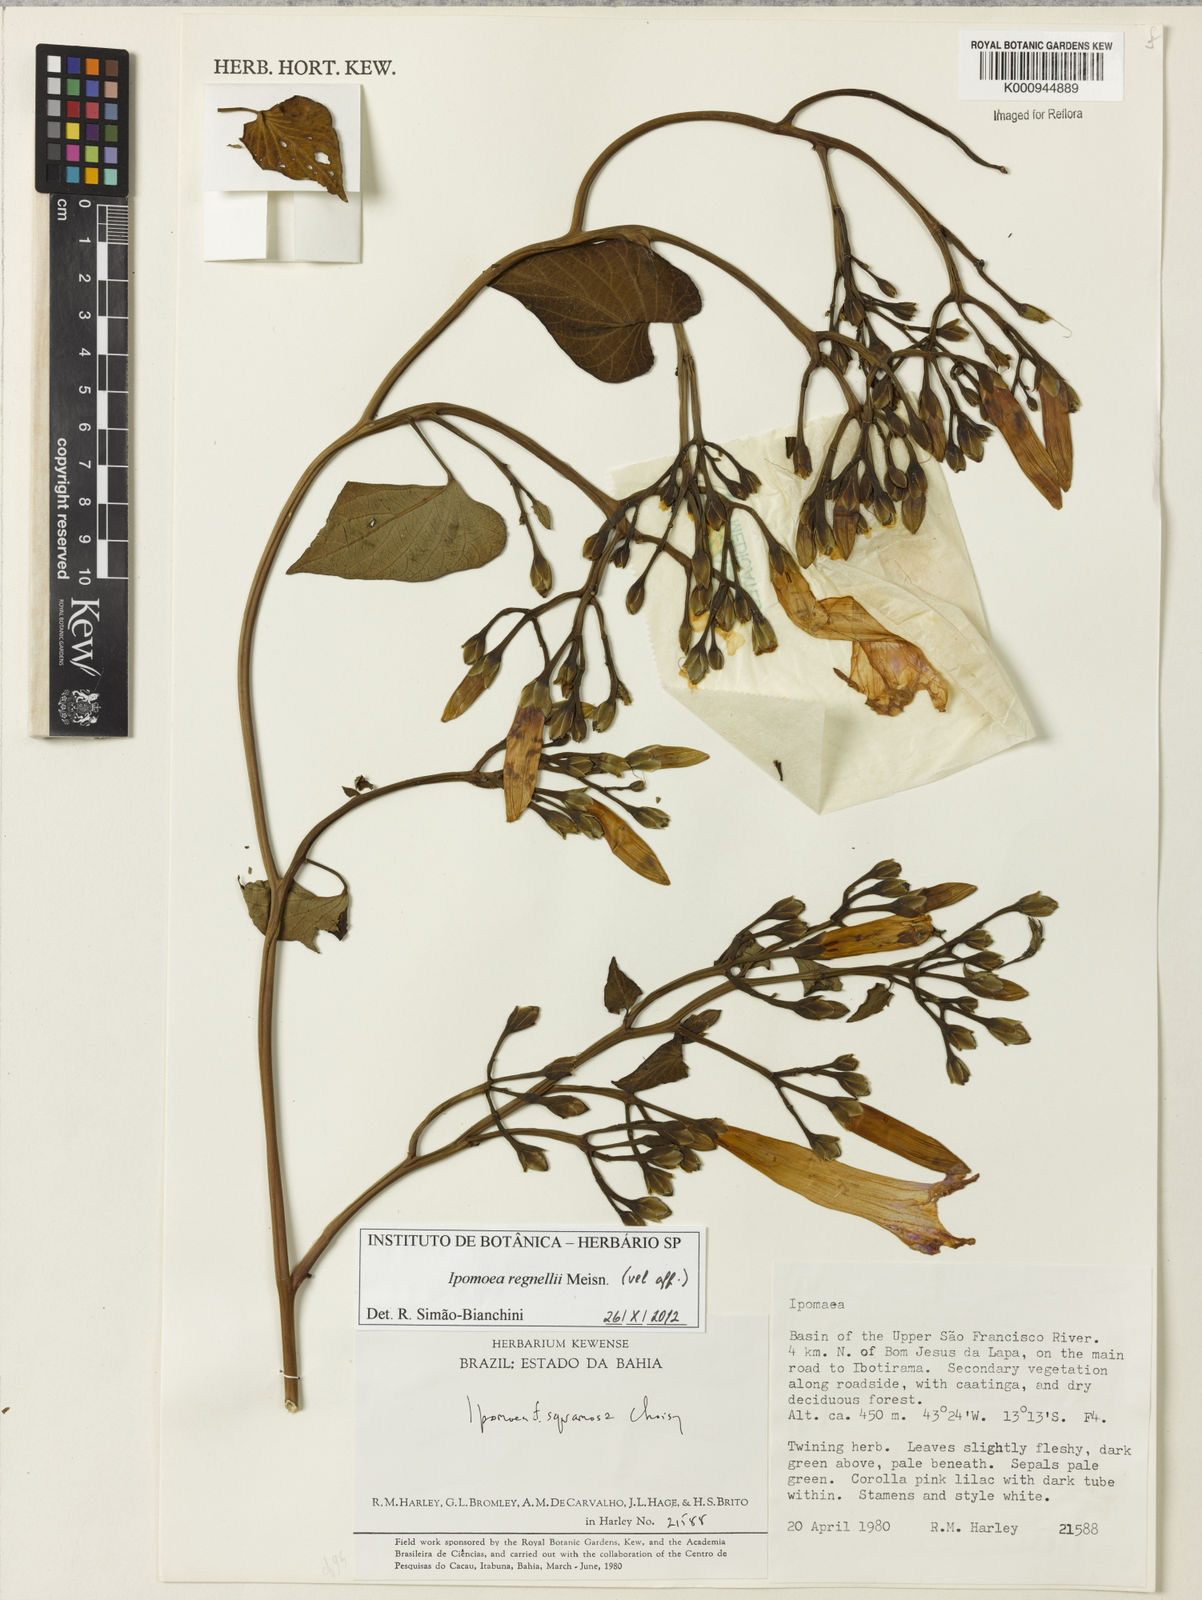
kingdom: Plantae
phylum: Tracheophyta
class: Magnoliopsida
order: Solanales
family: Convolvulaceae
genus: Ipomoea
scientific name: Ipomoea connata
